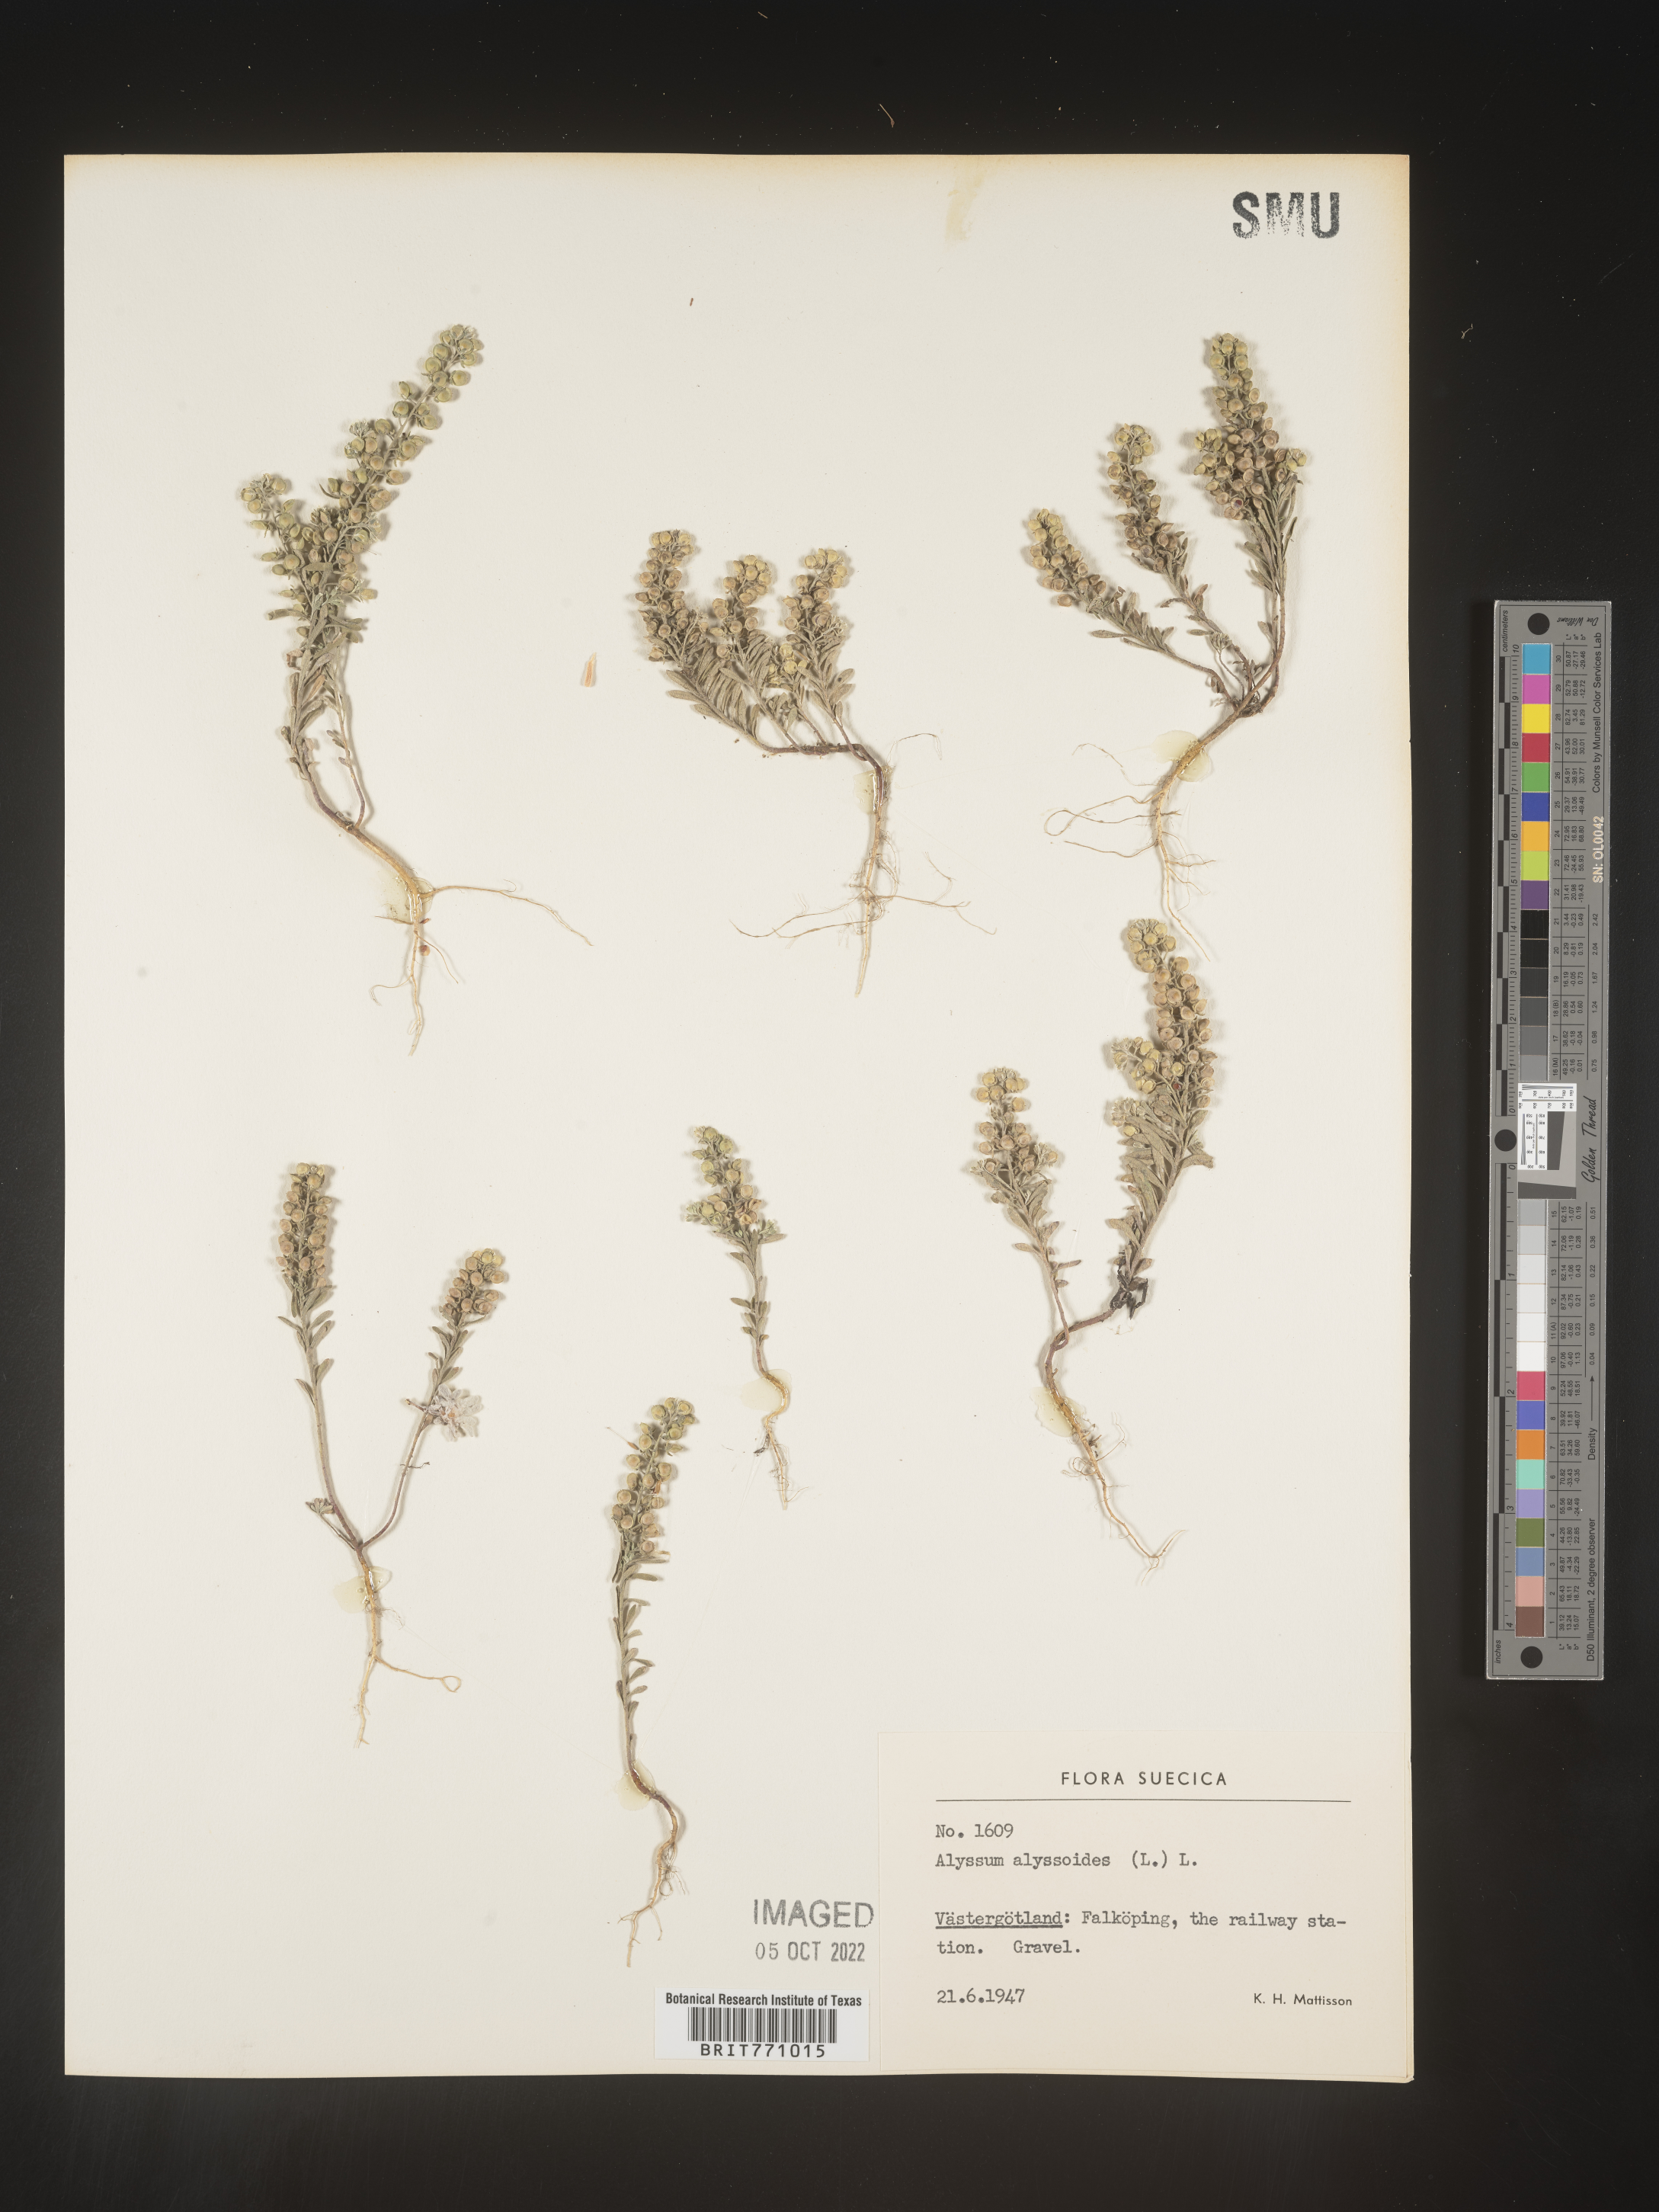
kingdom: Plantae
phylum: Tracheophyta
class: Magnoliopsida
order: Brassicales
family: Brassicaceae
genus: Alyssum
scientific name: Alyssum
